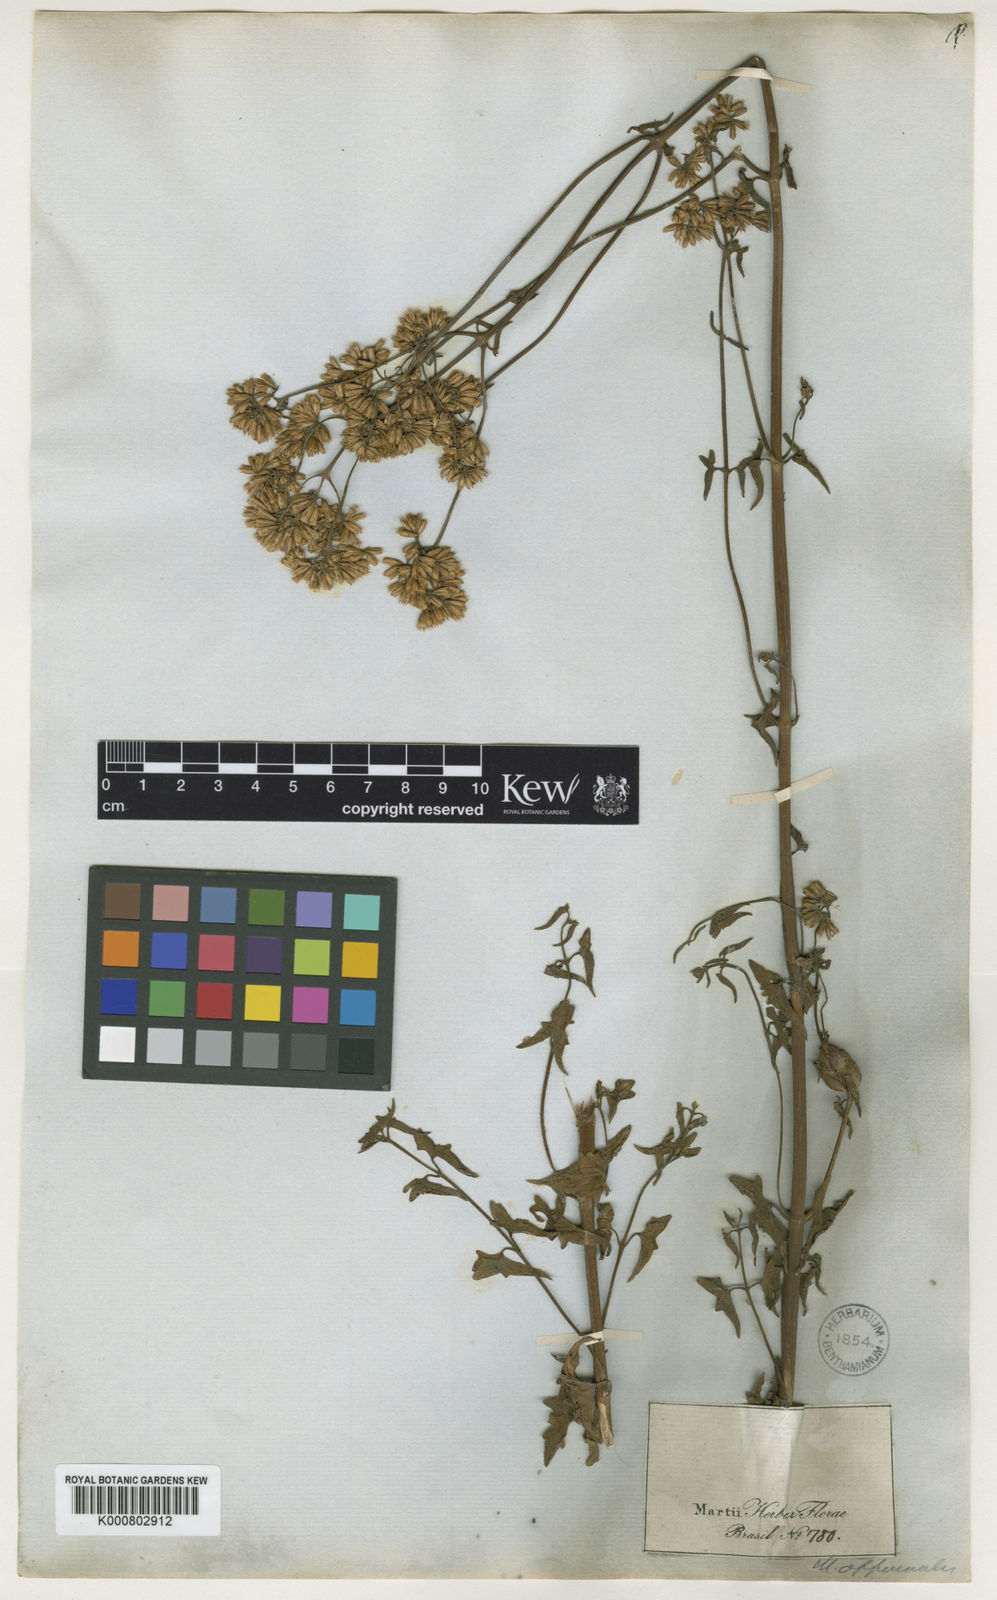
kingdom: Plantae
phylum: Tracheophyta
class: Magnoliopsida
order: Asterales
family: Asteraceae
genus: Mikania
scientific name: Mikania officinalis
